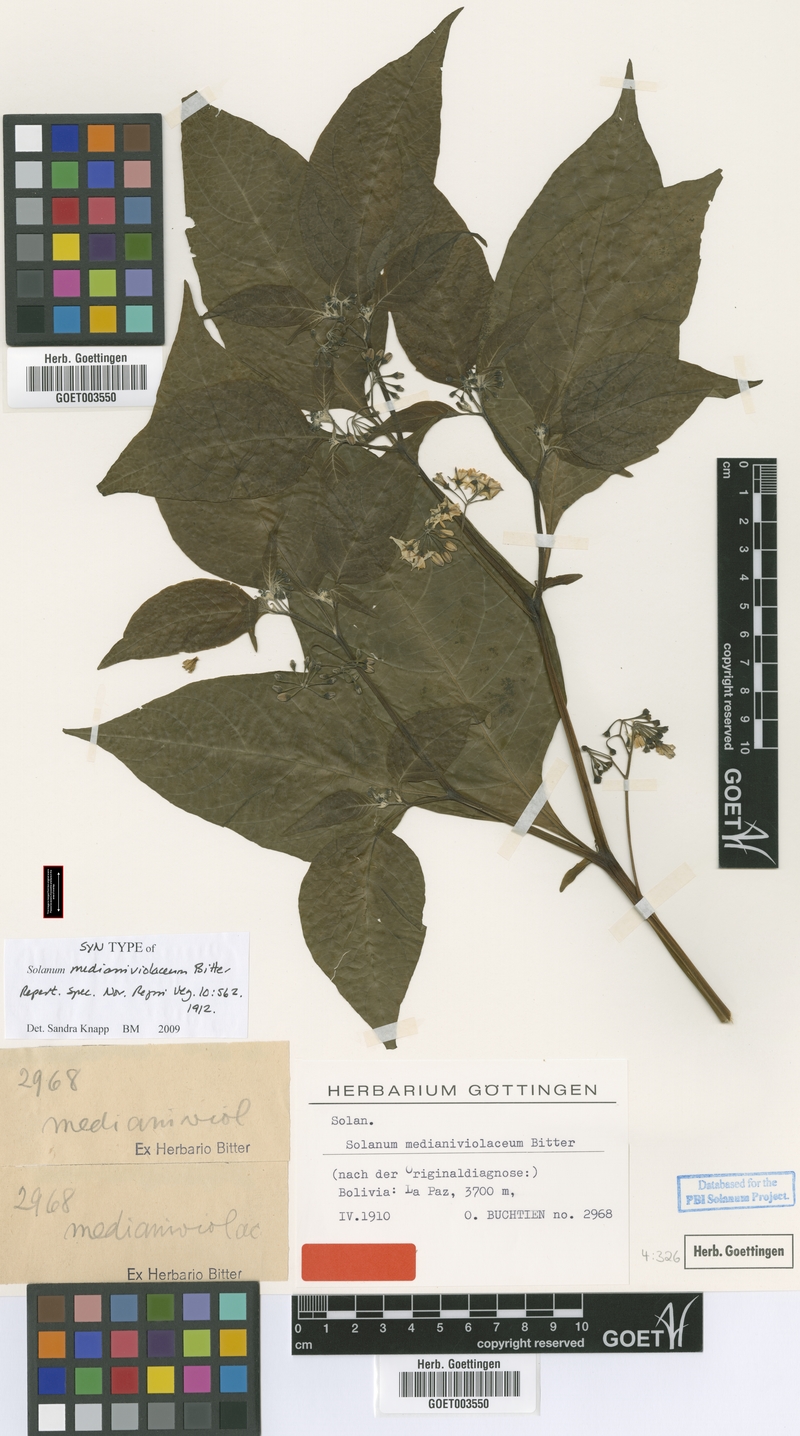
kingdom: Plantae
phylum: Tracheophyta
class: Magnoliopsida
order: Solanales
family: Solanaceae
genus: Solanum
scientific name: Solanum polytrichostylum
